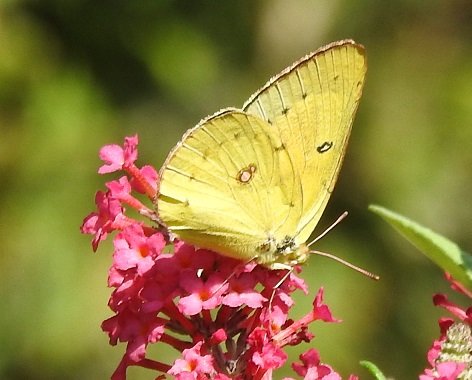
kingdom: Animalia
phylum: Arthropoda
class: Insecta
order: Lepidoptera
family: Pieridae
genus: Colias
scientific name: Colias eurytheme
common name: Orange Sulphur
